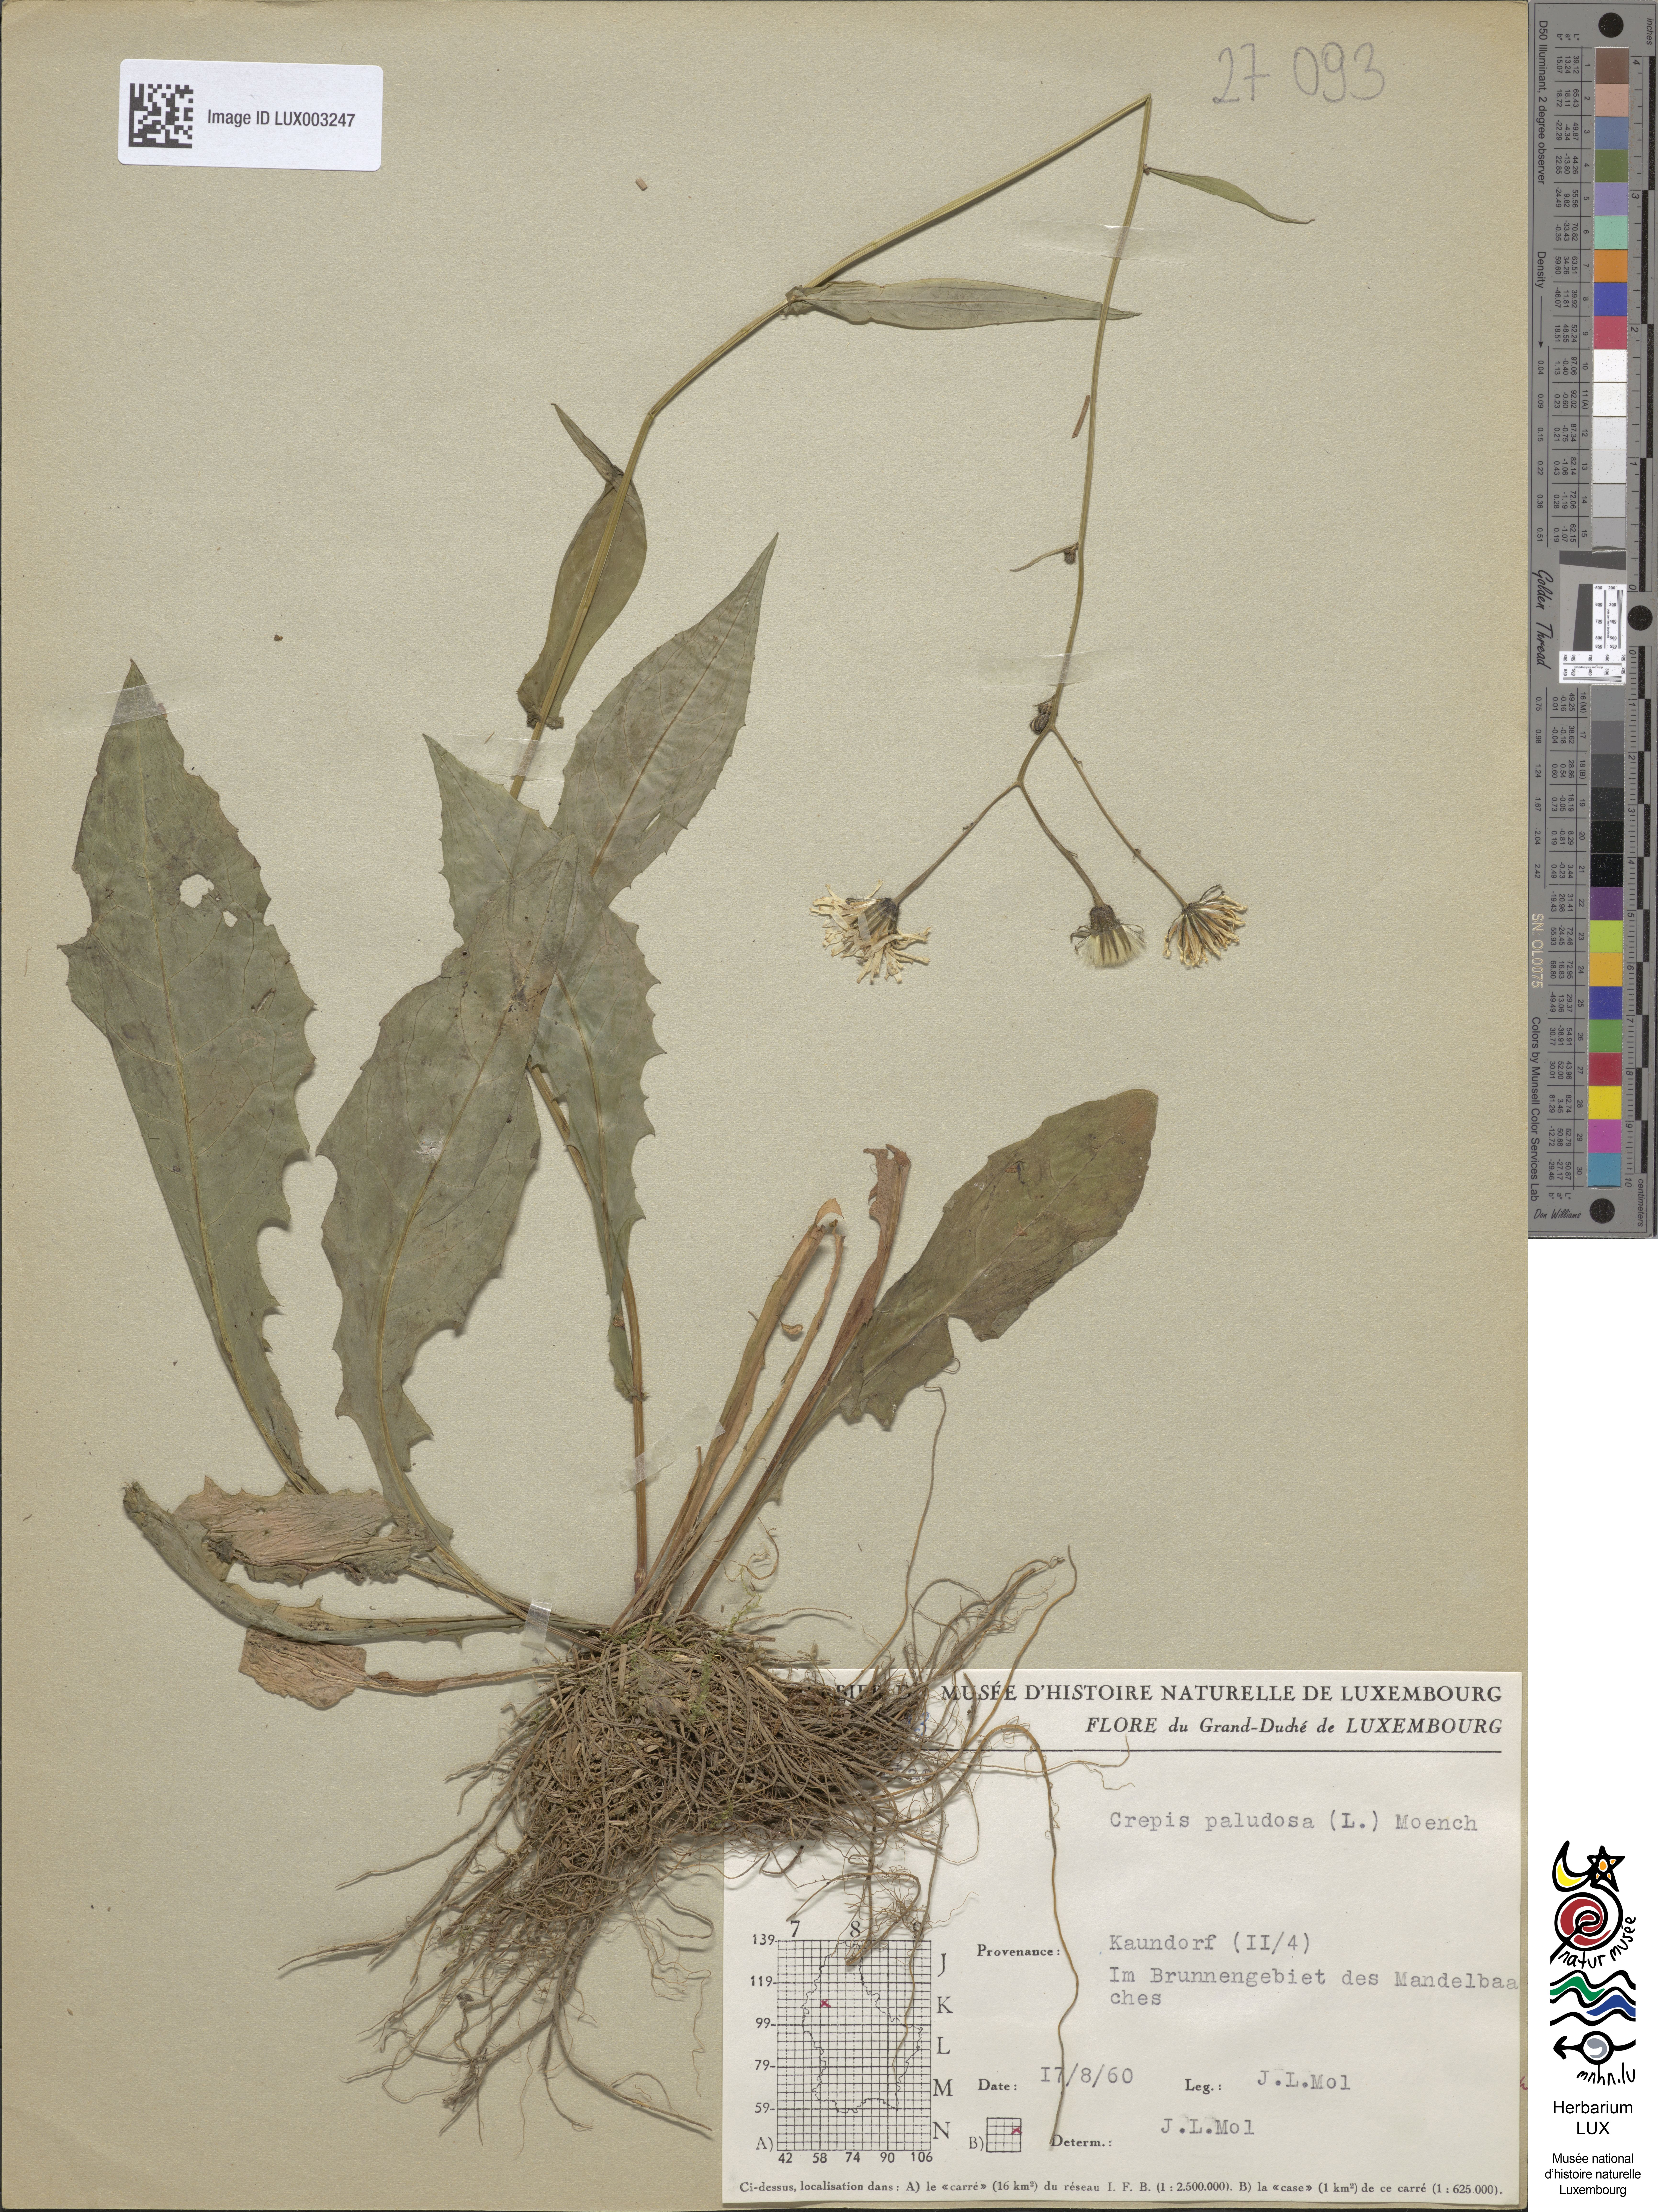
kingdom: Plantae
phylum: Tracheophyta
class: Magnoliopsida
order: Asterales
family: Asteraceae
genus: Crepis
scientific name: Crepis paludosa
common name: Marsh hawk's-beard
